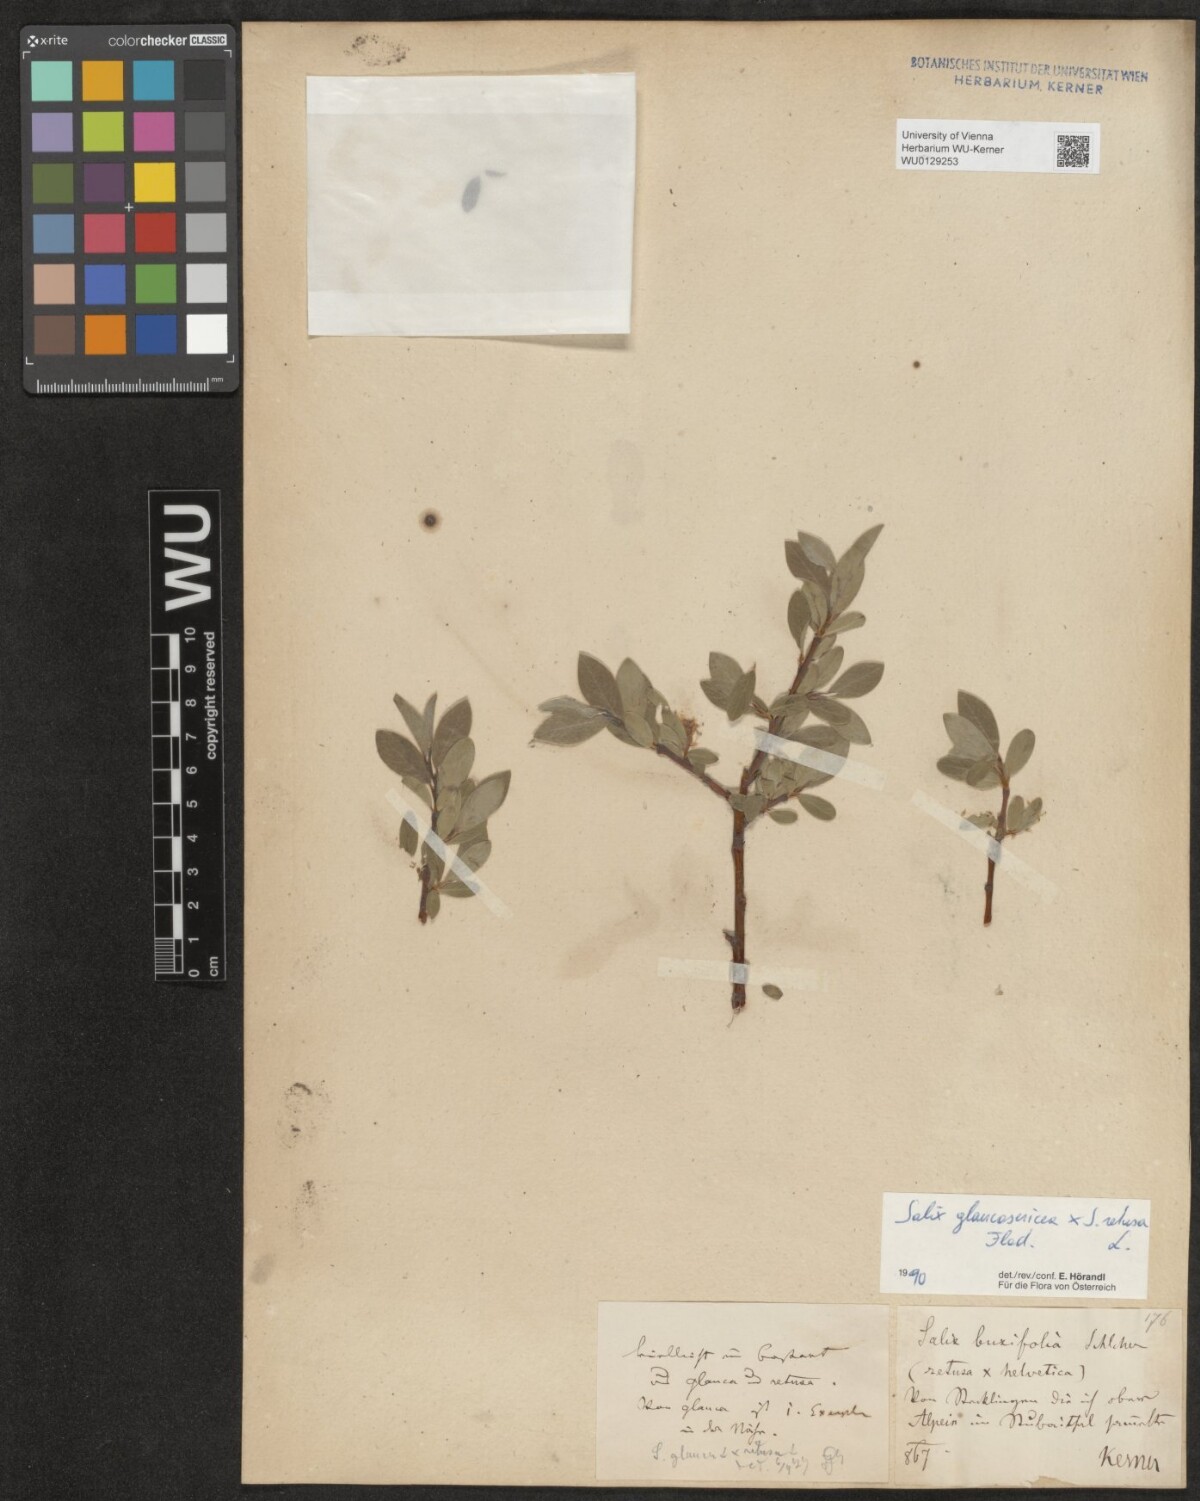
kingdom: Plantae
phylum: Tracheophyta
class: Magnoliopsida
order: Malpighiales
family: Salicaceae
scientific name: Salicaceae
